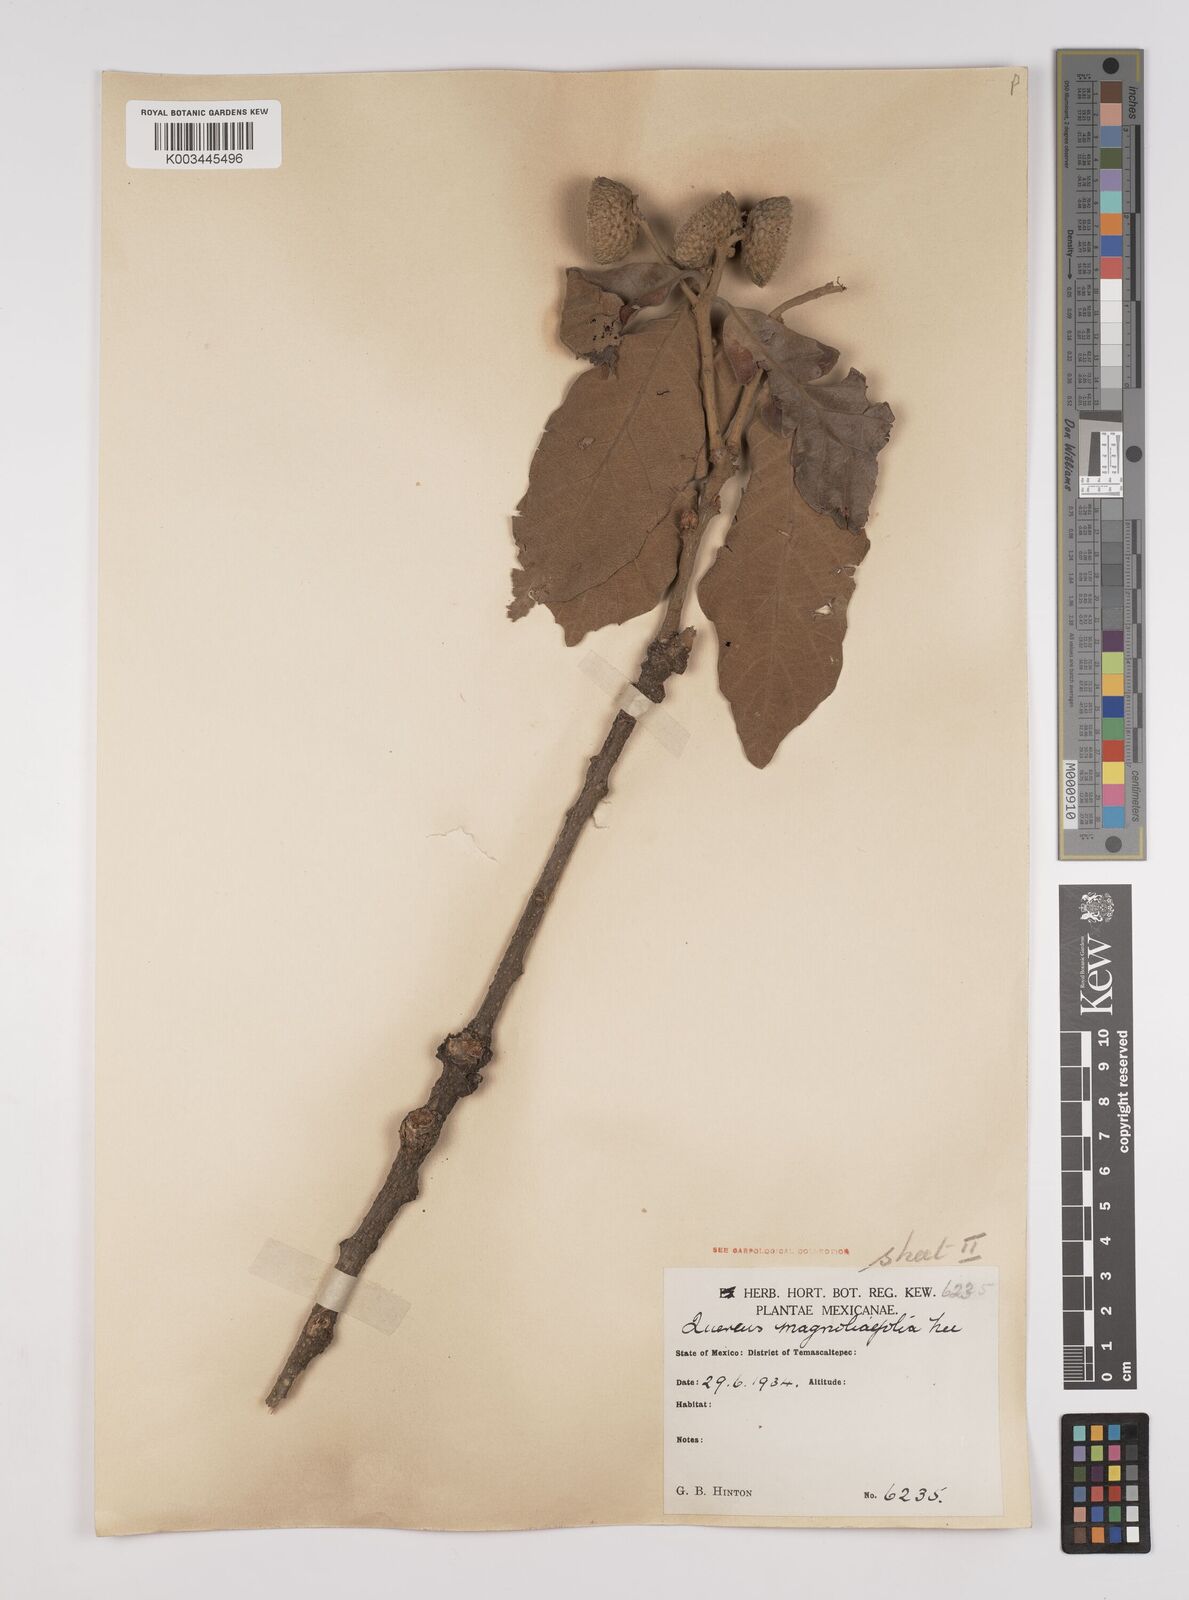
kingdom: Plantae
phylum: Tracheophyta
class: Magnoliopsida
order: Fagales
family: Fagaceae
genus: Quercus
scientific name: Quercus magnoliifolia
